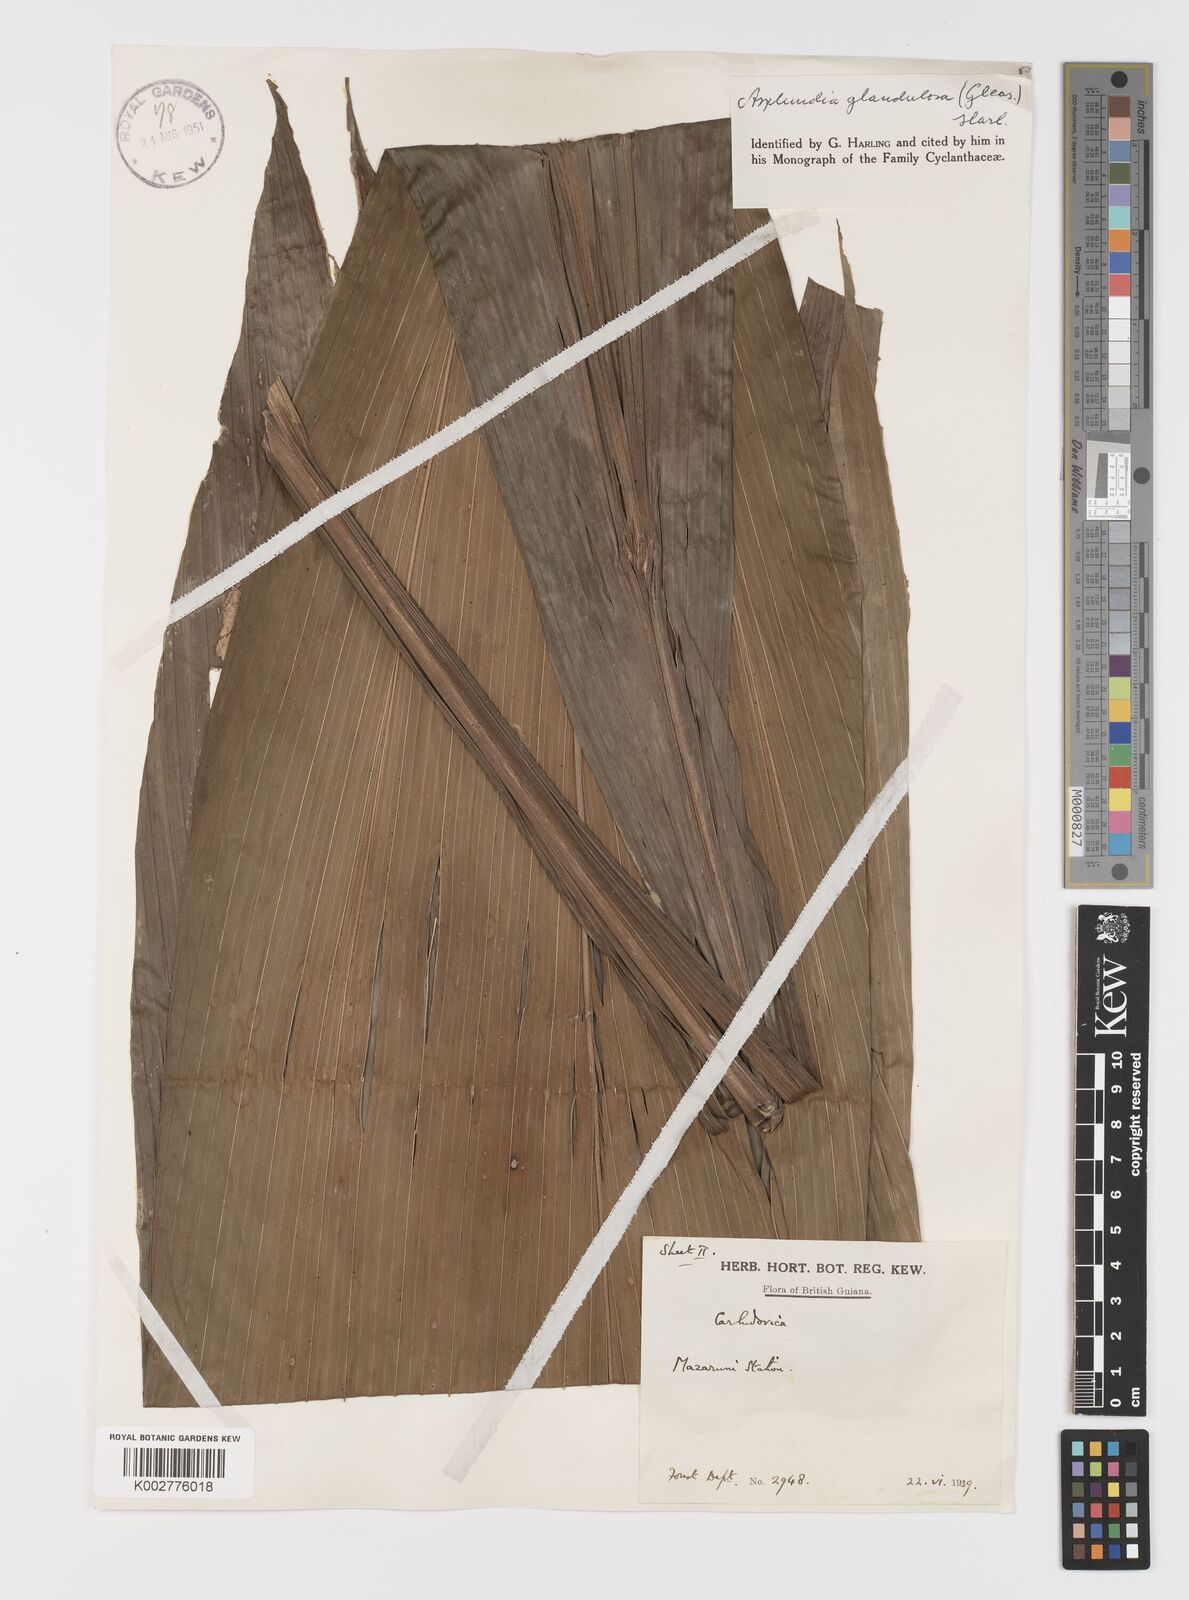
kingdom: Plantae
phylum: Tracheophyta
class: Liliopsida
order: Pandanales
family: Cyclanthaceae
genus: Asplundia
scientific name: Asplundia glandulosa
